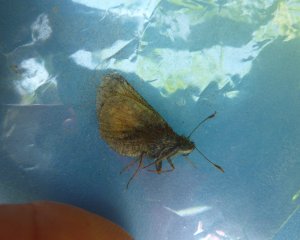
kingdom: Animalia
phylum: Arthropoda
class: Insecta
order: Lepidoptera
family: Hesperiidae
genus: Lon
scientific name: Lon hobomok
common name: Hobomok Skipper
